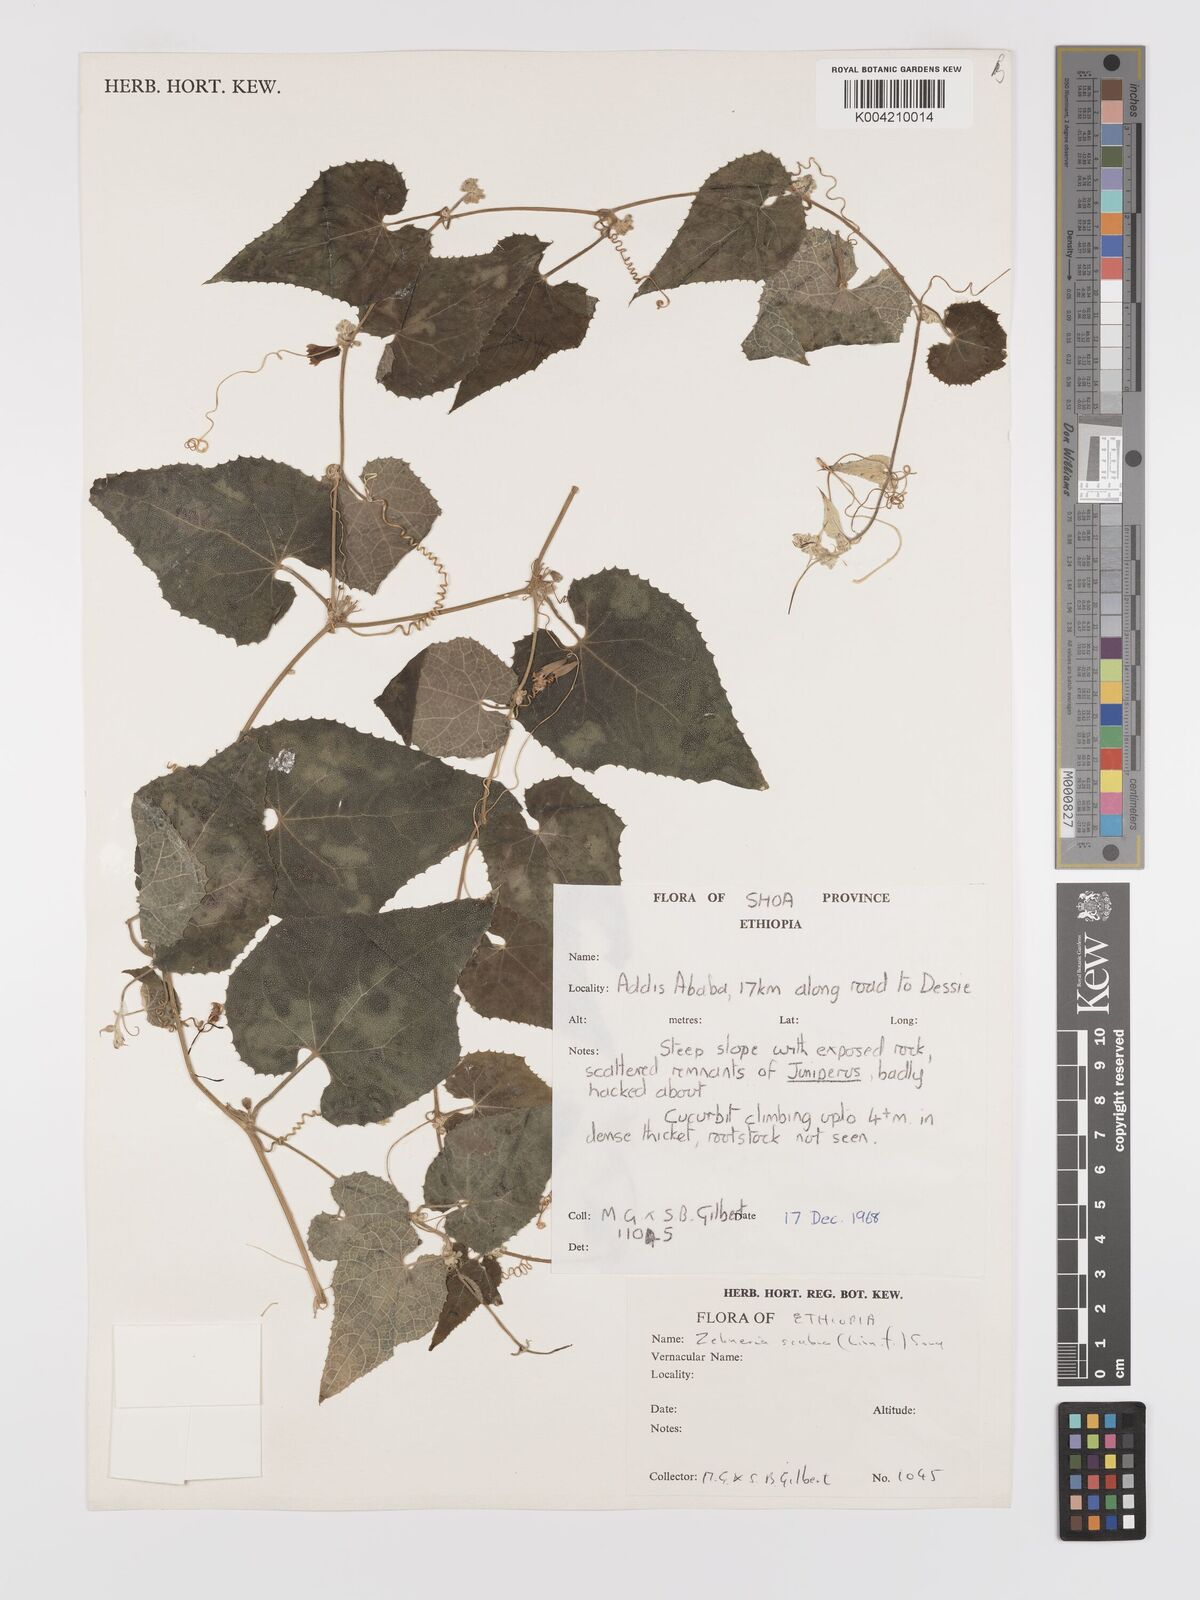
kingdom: Plantae
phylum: Tracheophyta
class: Magnoliopsida
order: Cucurbitales
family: Cucurbitaceae
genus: Zehneria
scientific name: Zehneria scabra
